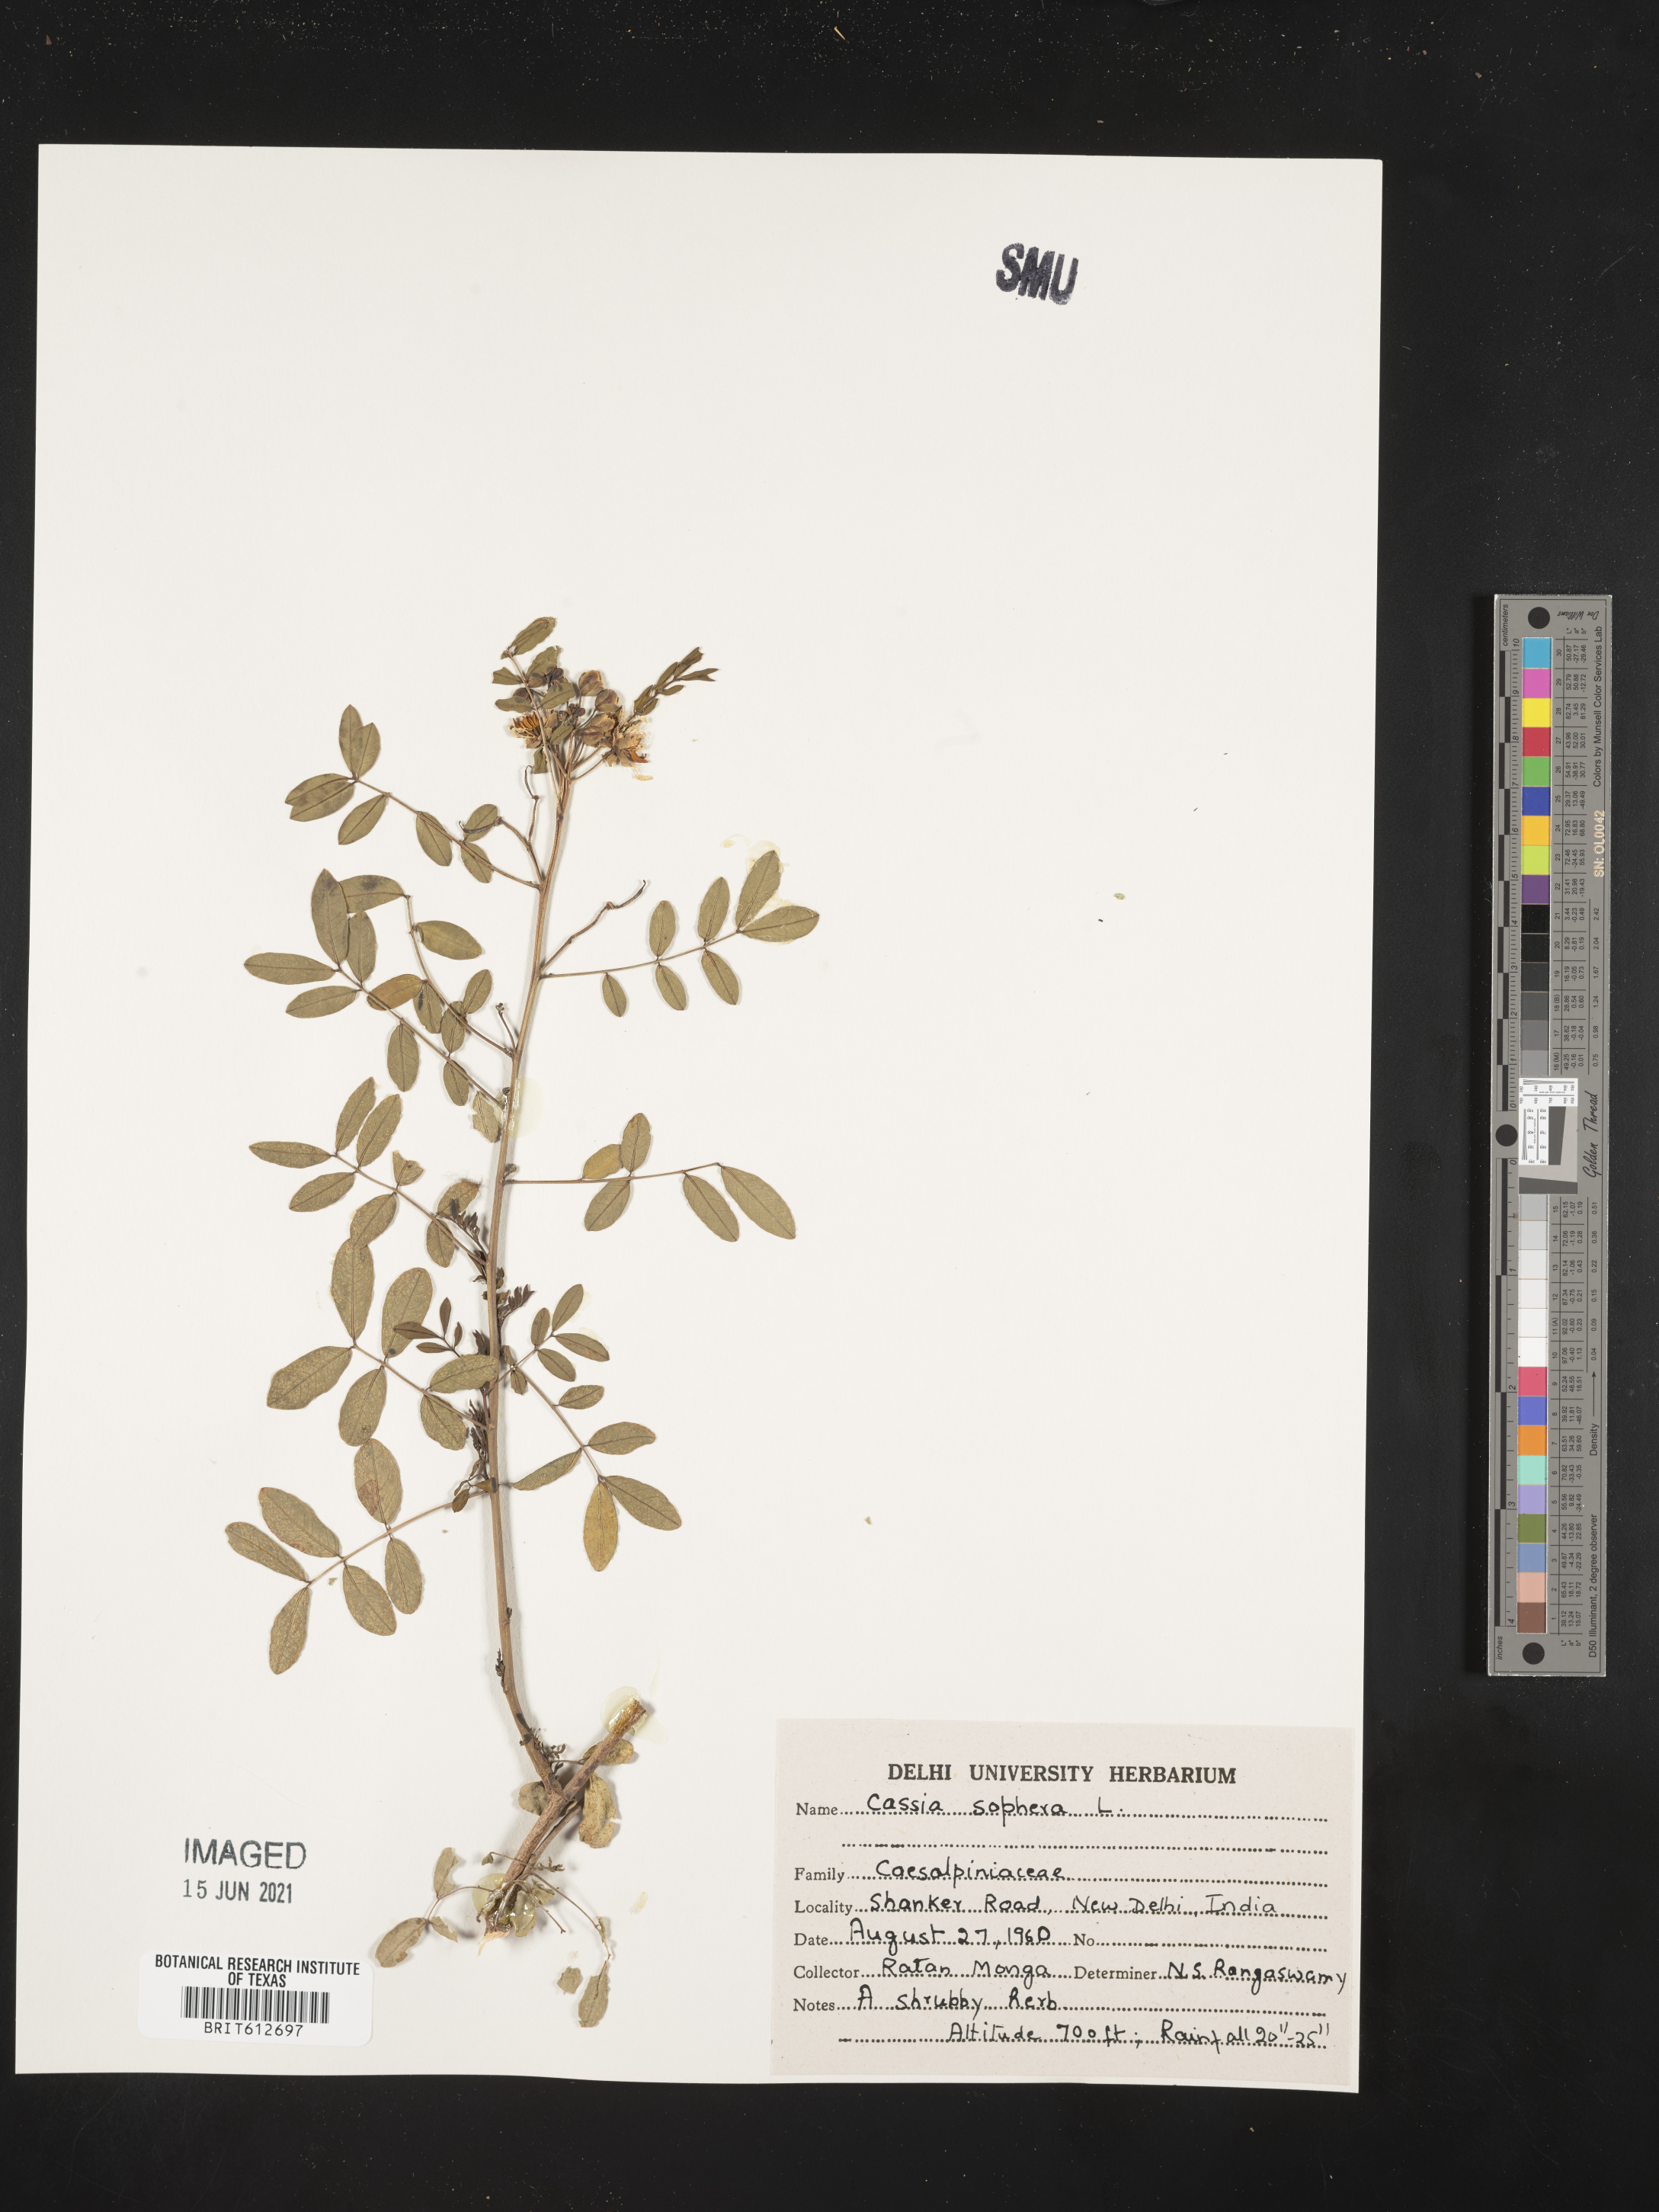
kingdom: Plantae
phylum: Tracheophyta
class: Magnoliopsida
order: Fabales
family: Fabaceae
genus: Senna
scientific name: Senna sophera
